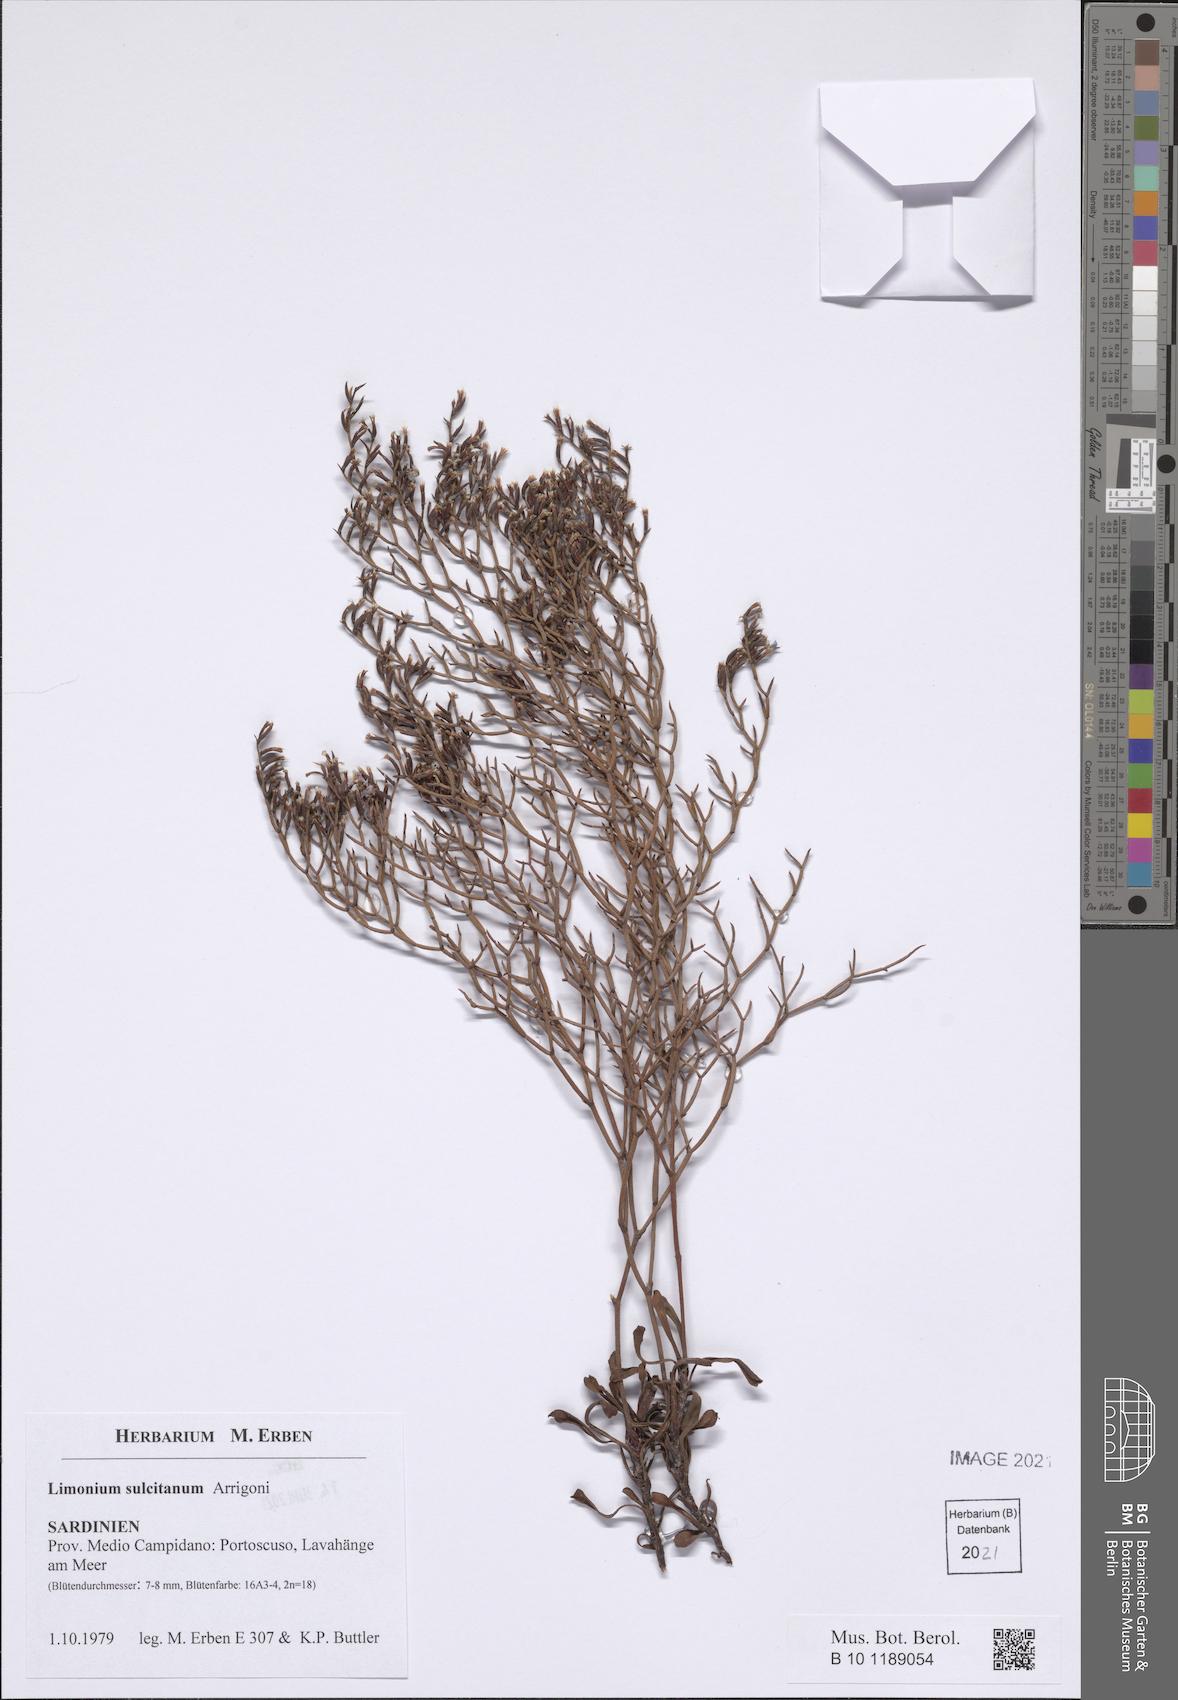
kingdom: Plantae
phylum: Tracheophyta
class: Magnoliopsida
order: Caryophyllales
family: Plumbaginaceae
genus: Limonium
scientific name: Limonium sulcitanum
